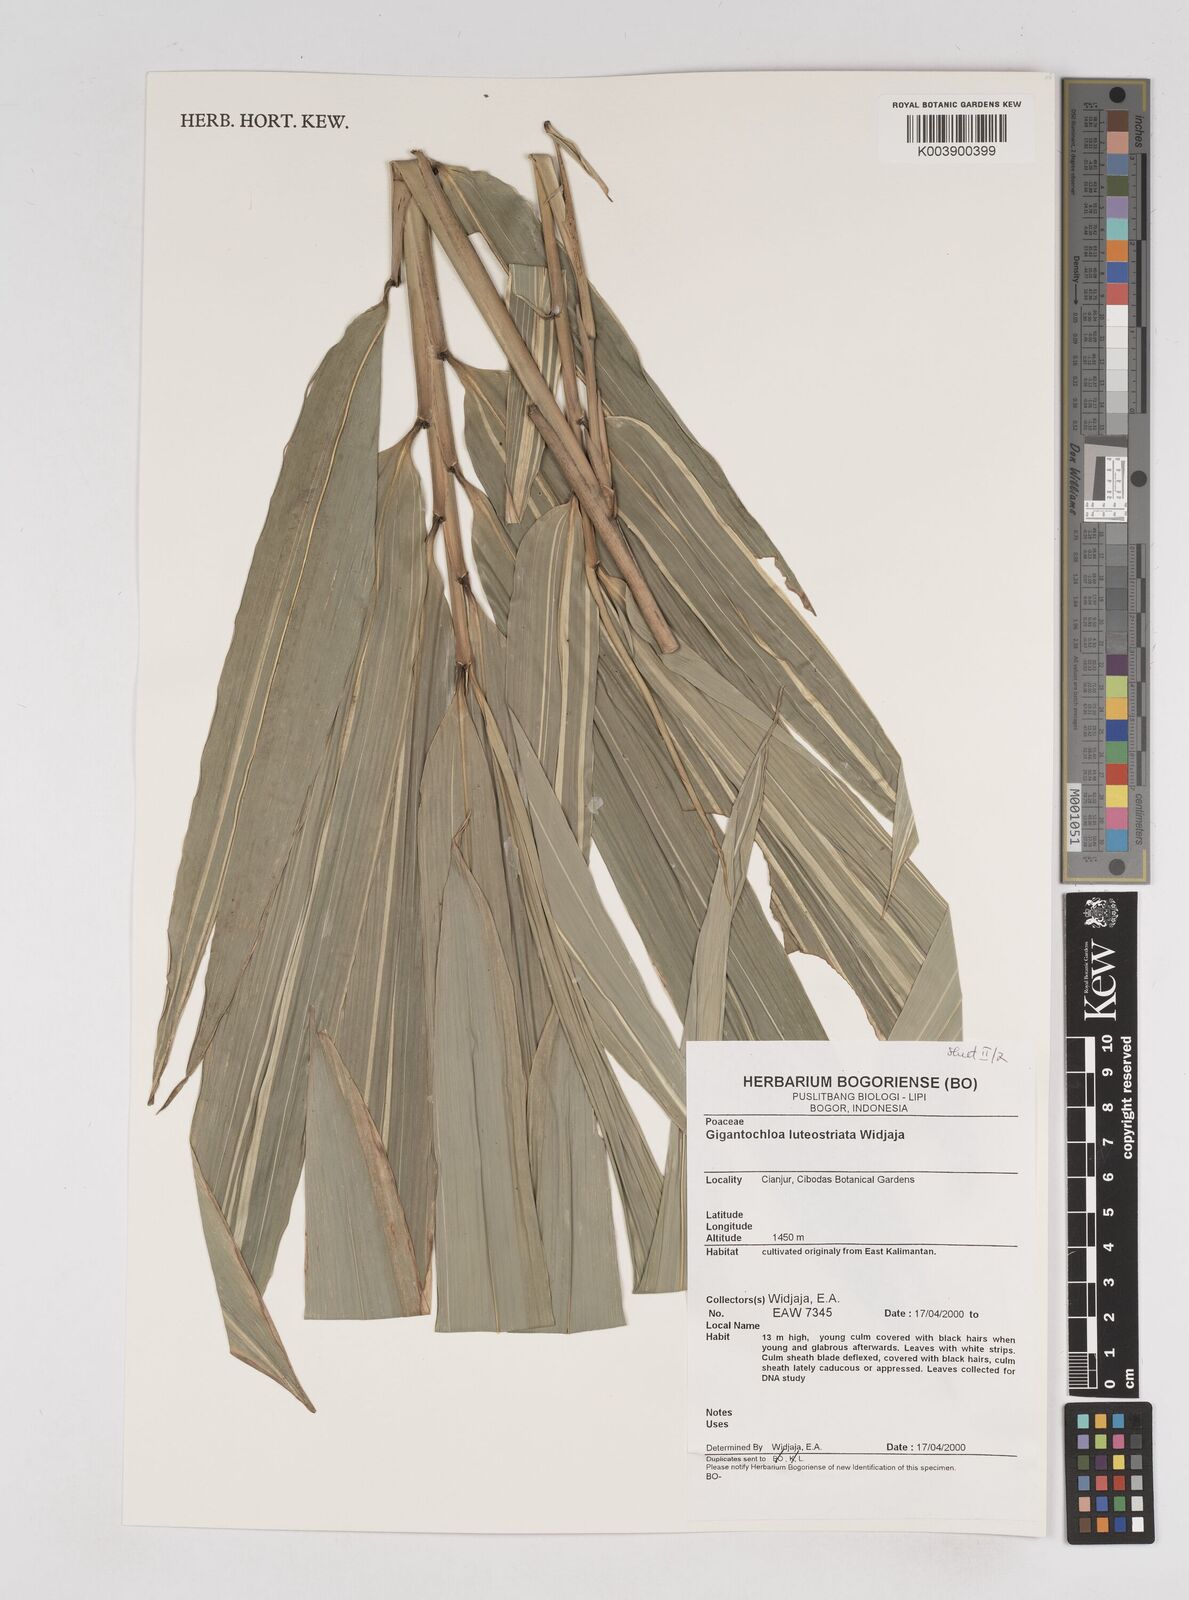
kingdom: Plantae
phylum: Tracheophyta
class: Liliopsida
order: Poales
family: Poaceae
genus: Gigantochloa
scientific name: Gigantochloa luteostriata
